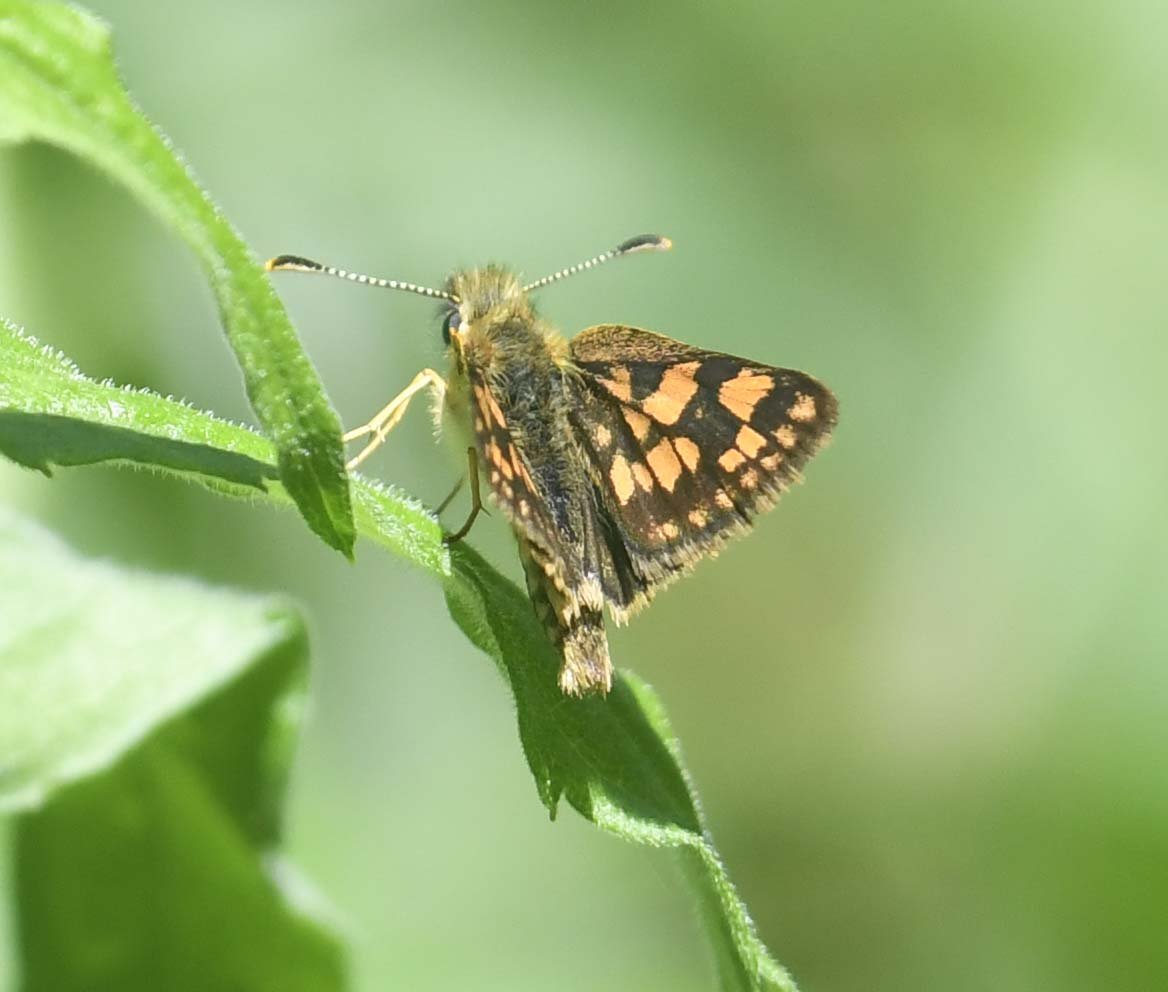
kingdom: Animalia
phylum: Arthropoda
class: Insecta
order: Lepidoptera
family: Hesperiidae
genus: Carterocephalus
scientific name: Carterocephalus palaemon
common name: Chequered Skipper
